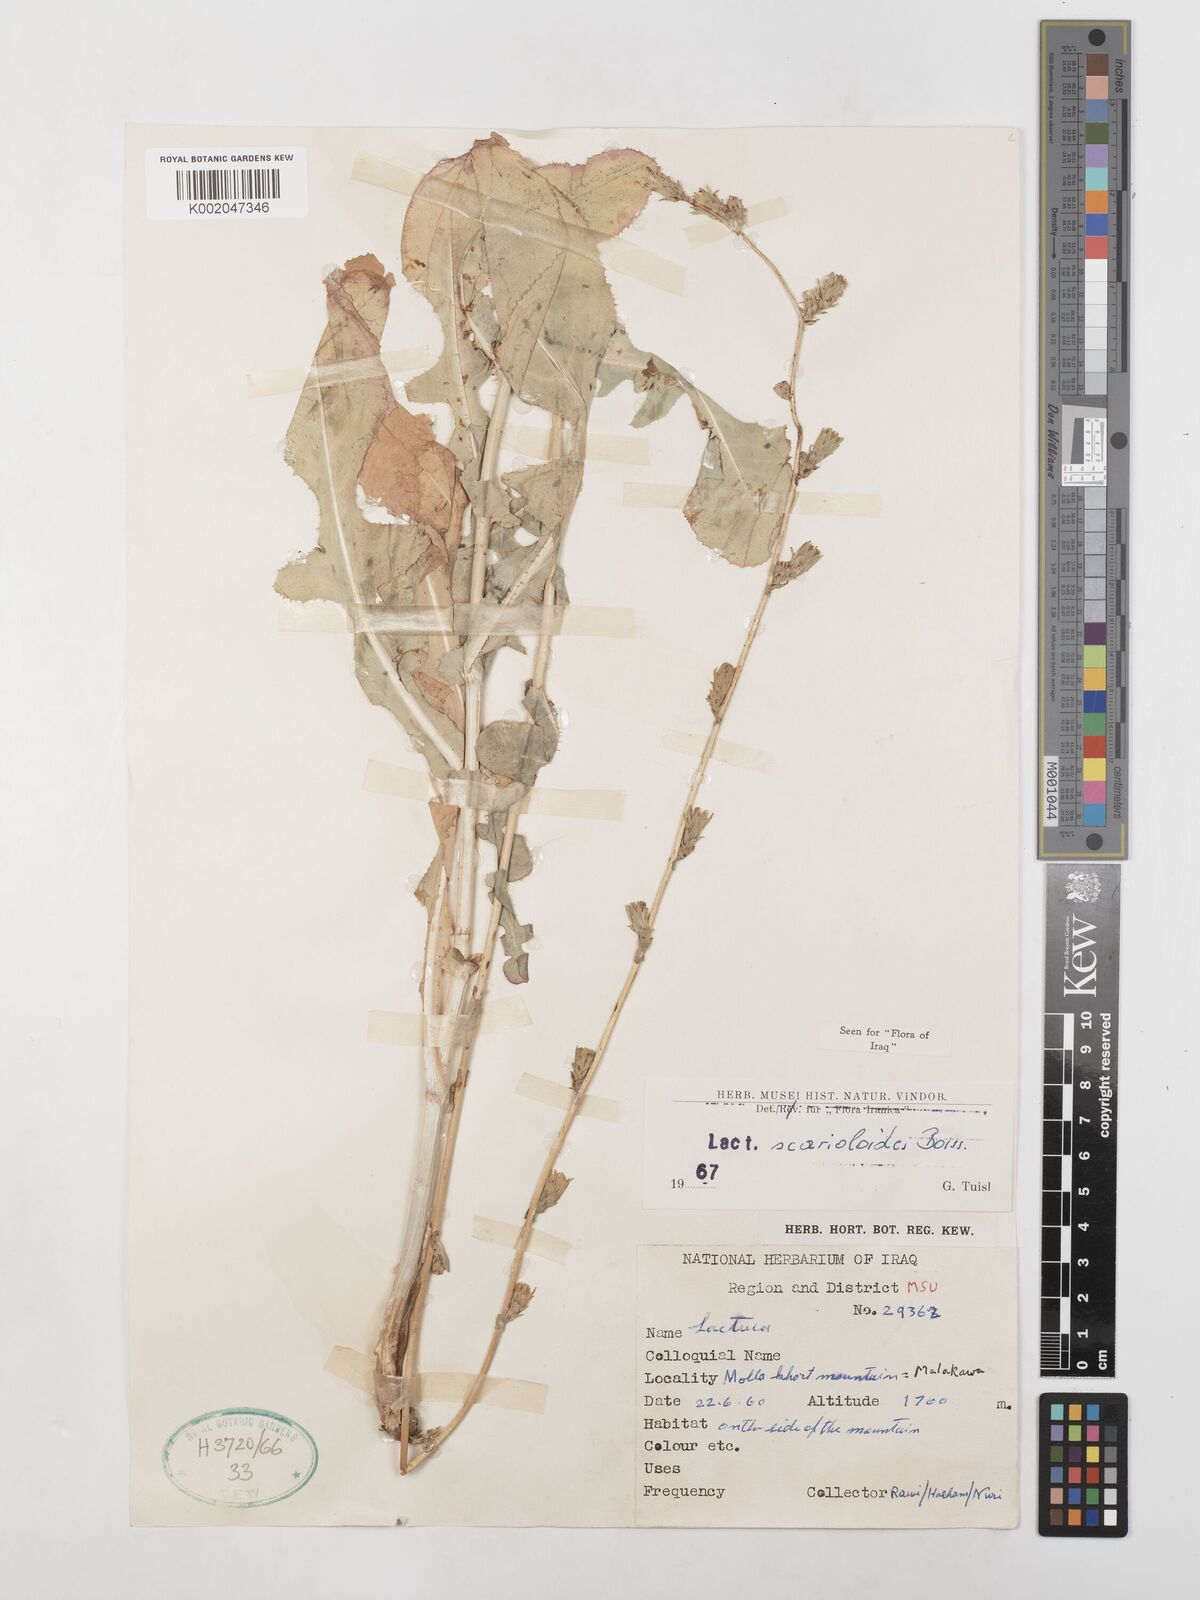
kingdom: Plantae
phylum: Tracheophyta
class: Magnoliopsida
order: Asterales
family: Asteraceae
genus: Lactuca
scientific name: Lactuca scarioloides
